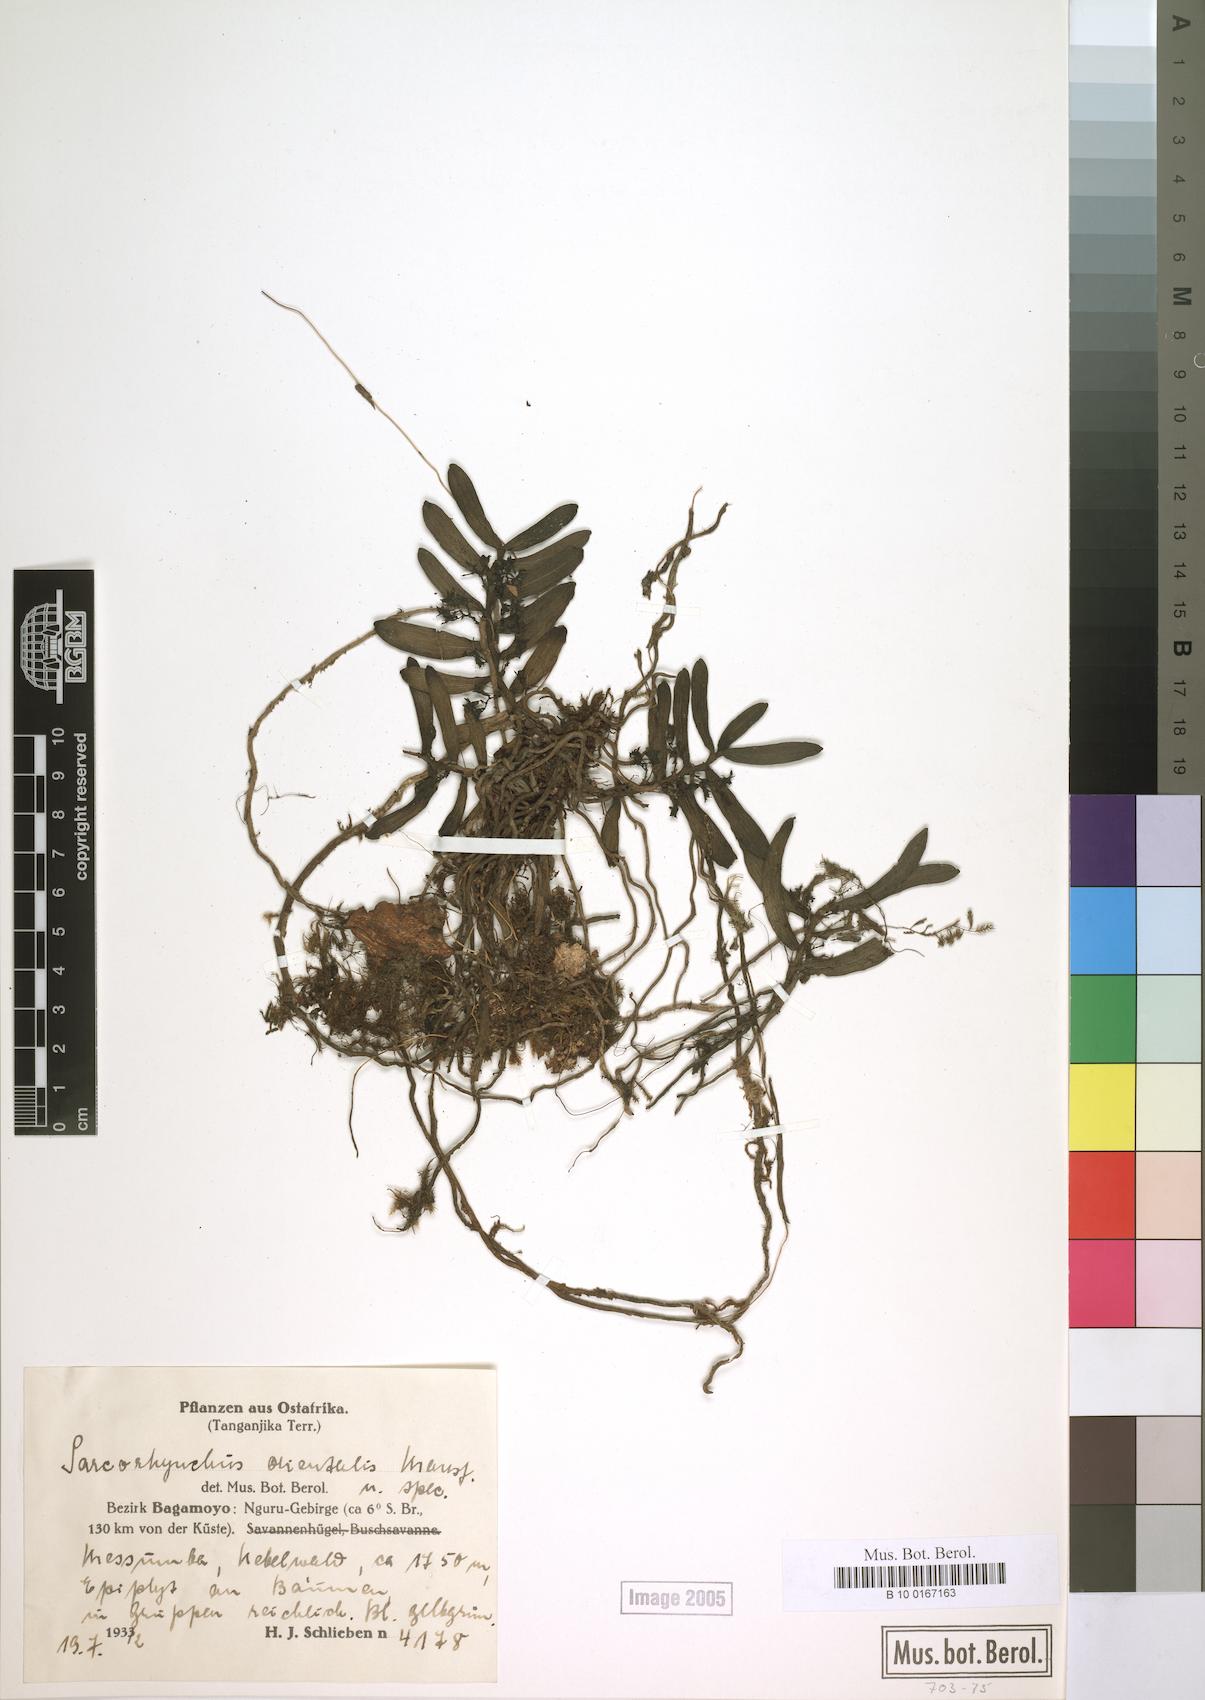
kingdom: Plantae
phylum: Tracheophyta
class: Liliopsida
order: Asparagales
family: Orchidaceae
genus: Rhipidoglossum
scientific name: Rhipidoglossum orientalis
